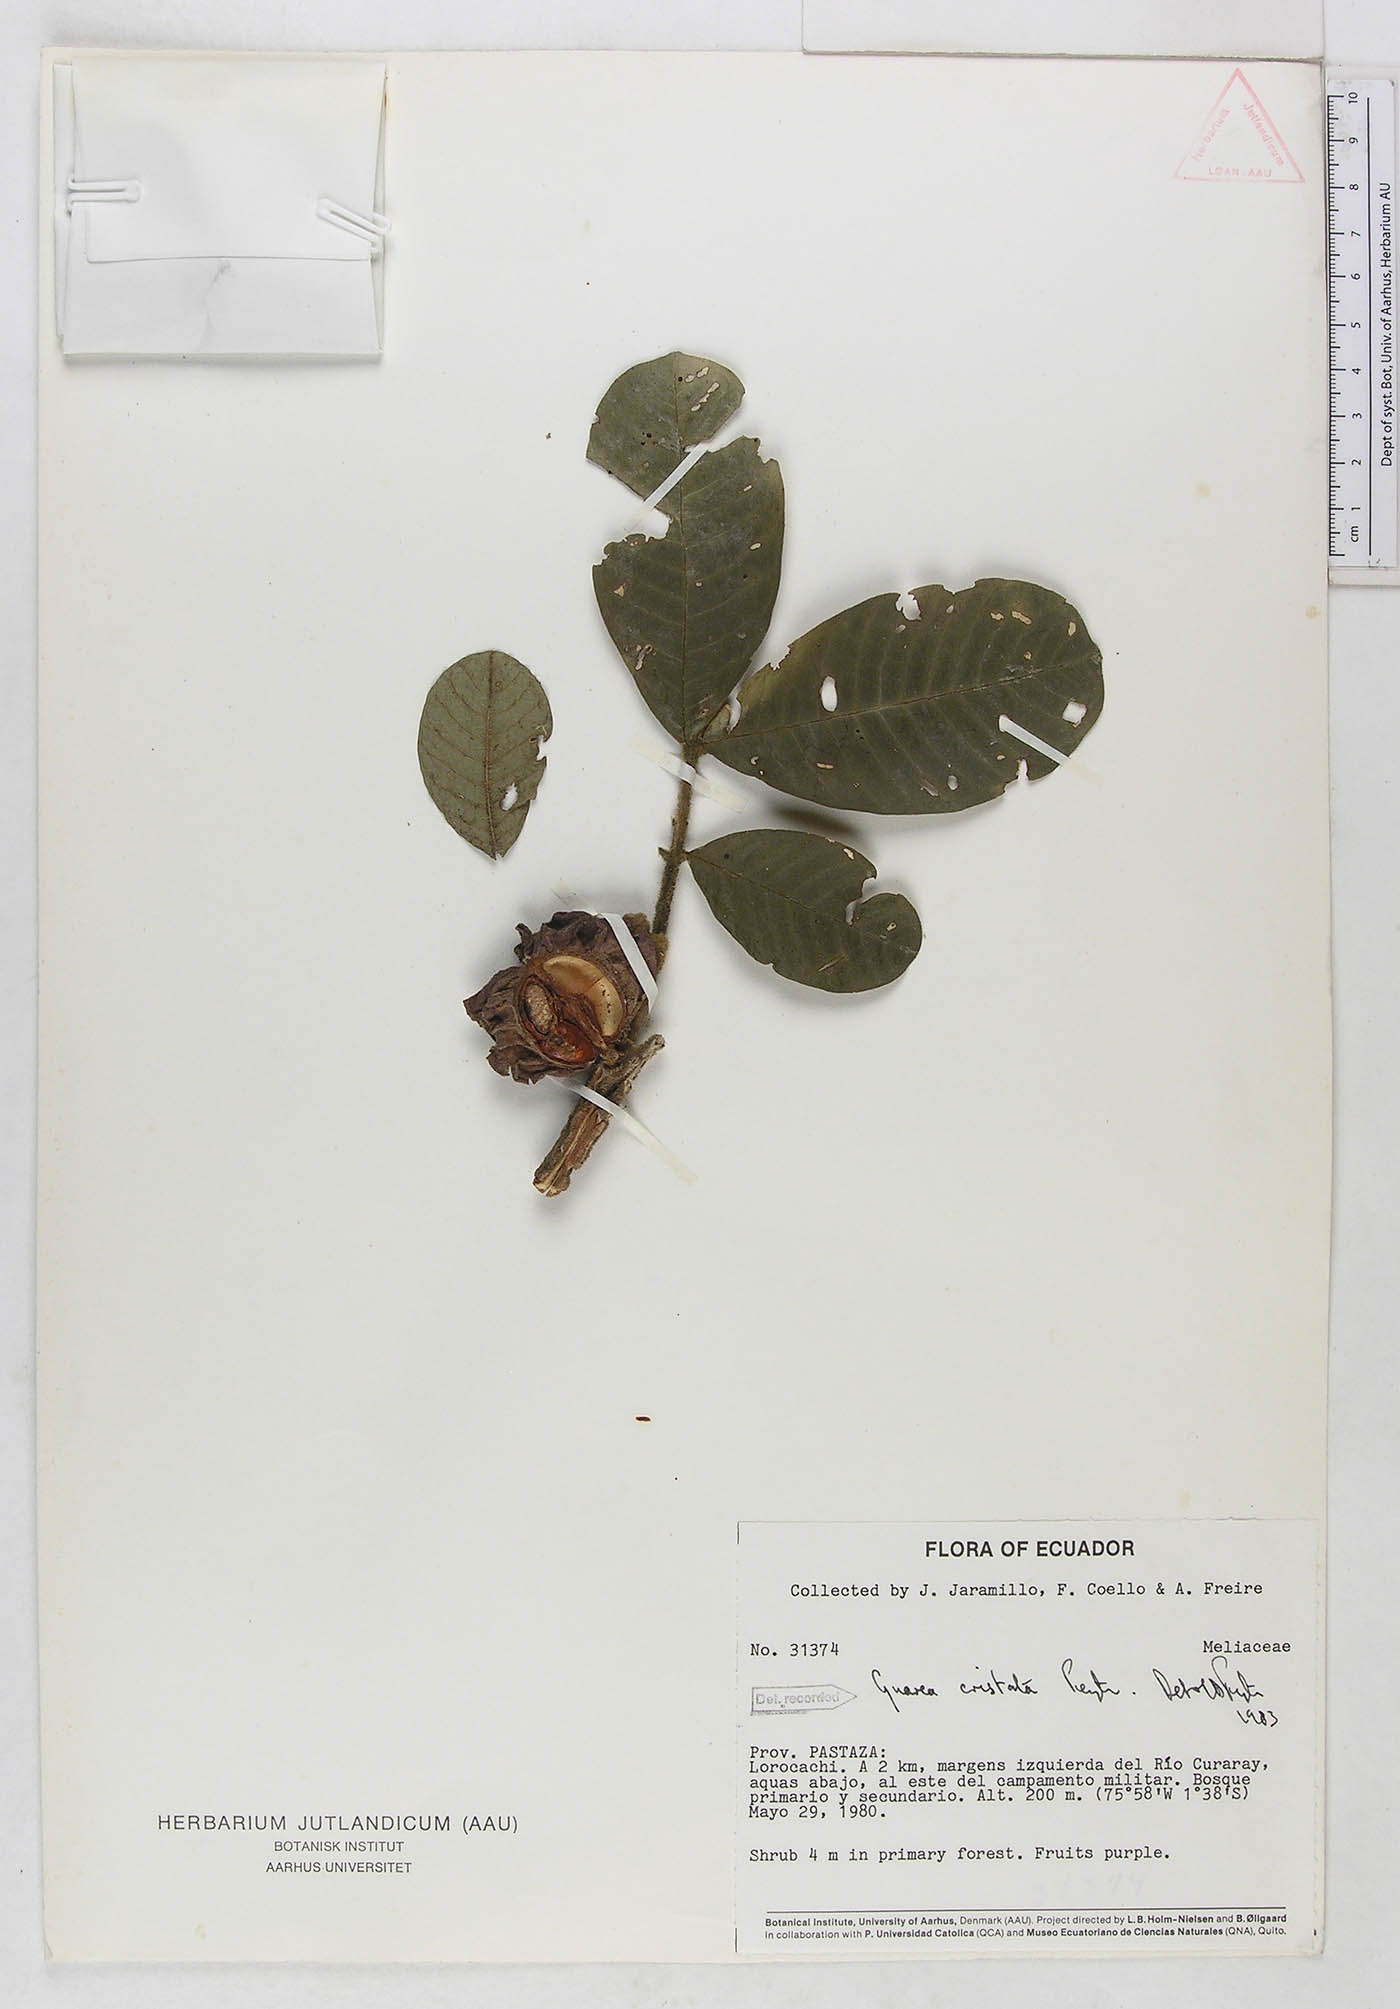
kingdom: Plantae
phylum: Tracheophyta
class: Magnoliopsida
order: Sapindales
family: Meliaceae
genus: Guarea
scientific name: Guarea cristata
